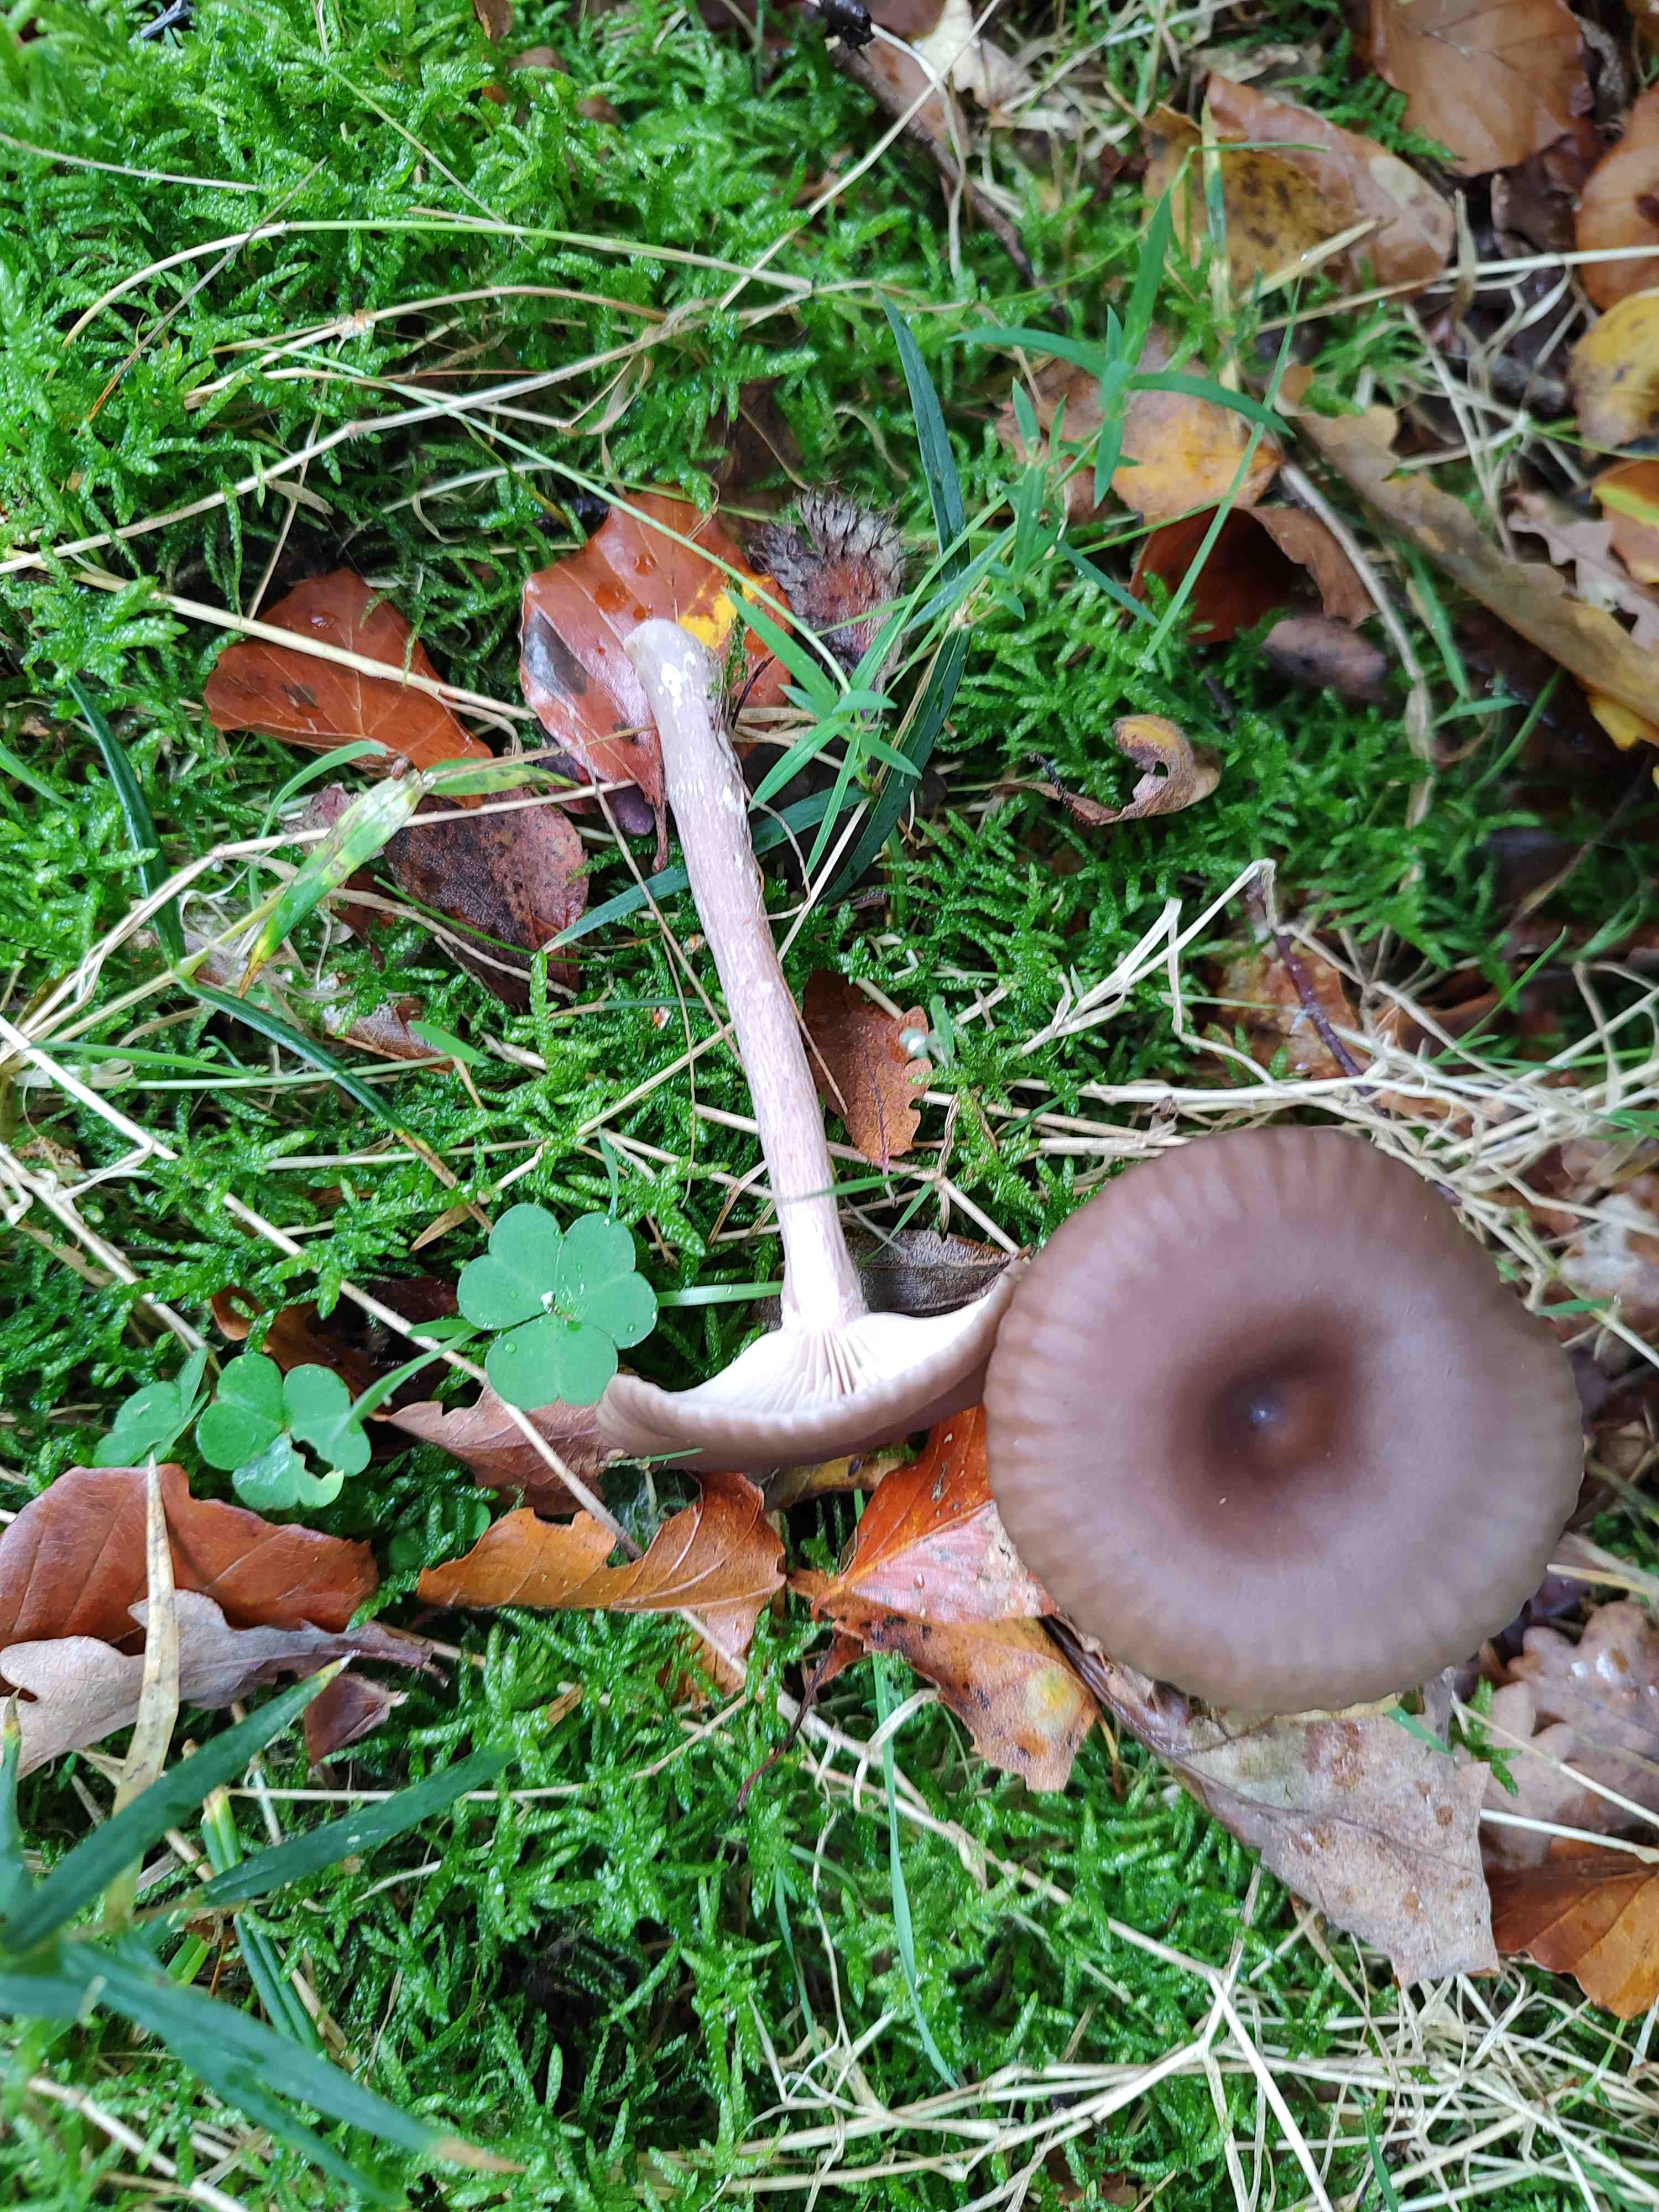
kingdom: Fungi
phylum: Basidiomycota
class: Agaricomycetes
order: Agaricales
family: Pseudoclitocybaceae
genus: Pseudoclitocybe
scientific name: Pseudoclitocybe cyathiformis
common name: almindelig bægertragthat
